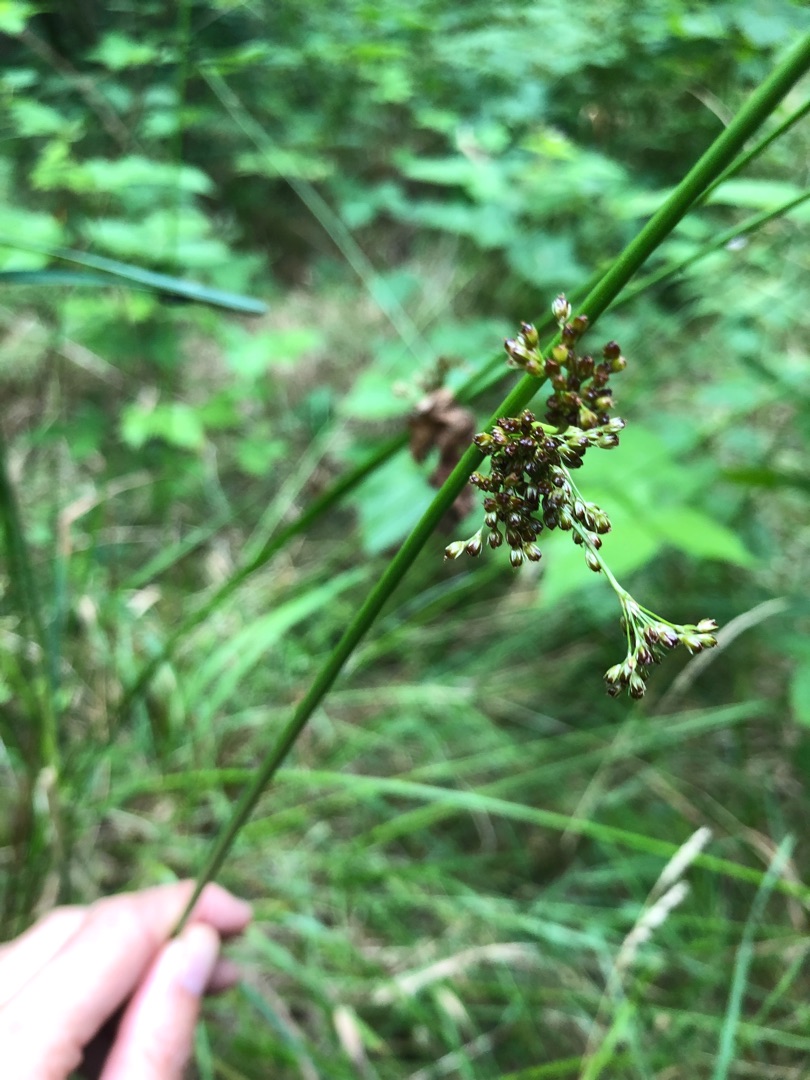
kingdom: Plantae
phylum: Tracheophyta
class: Liliopsida
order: Poales
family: Juncaceae
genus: Juncus
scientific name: Juncus effusus
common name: Lyse-siv
